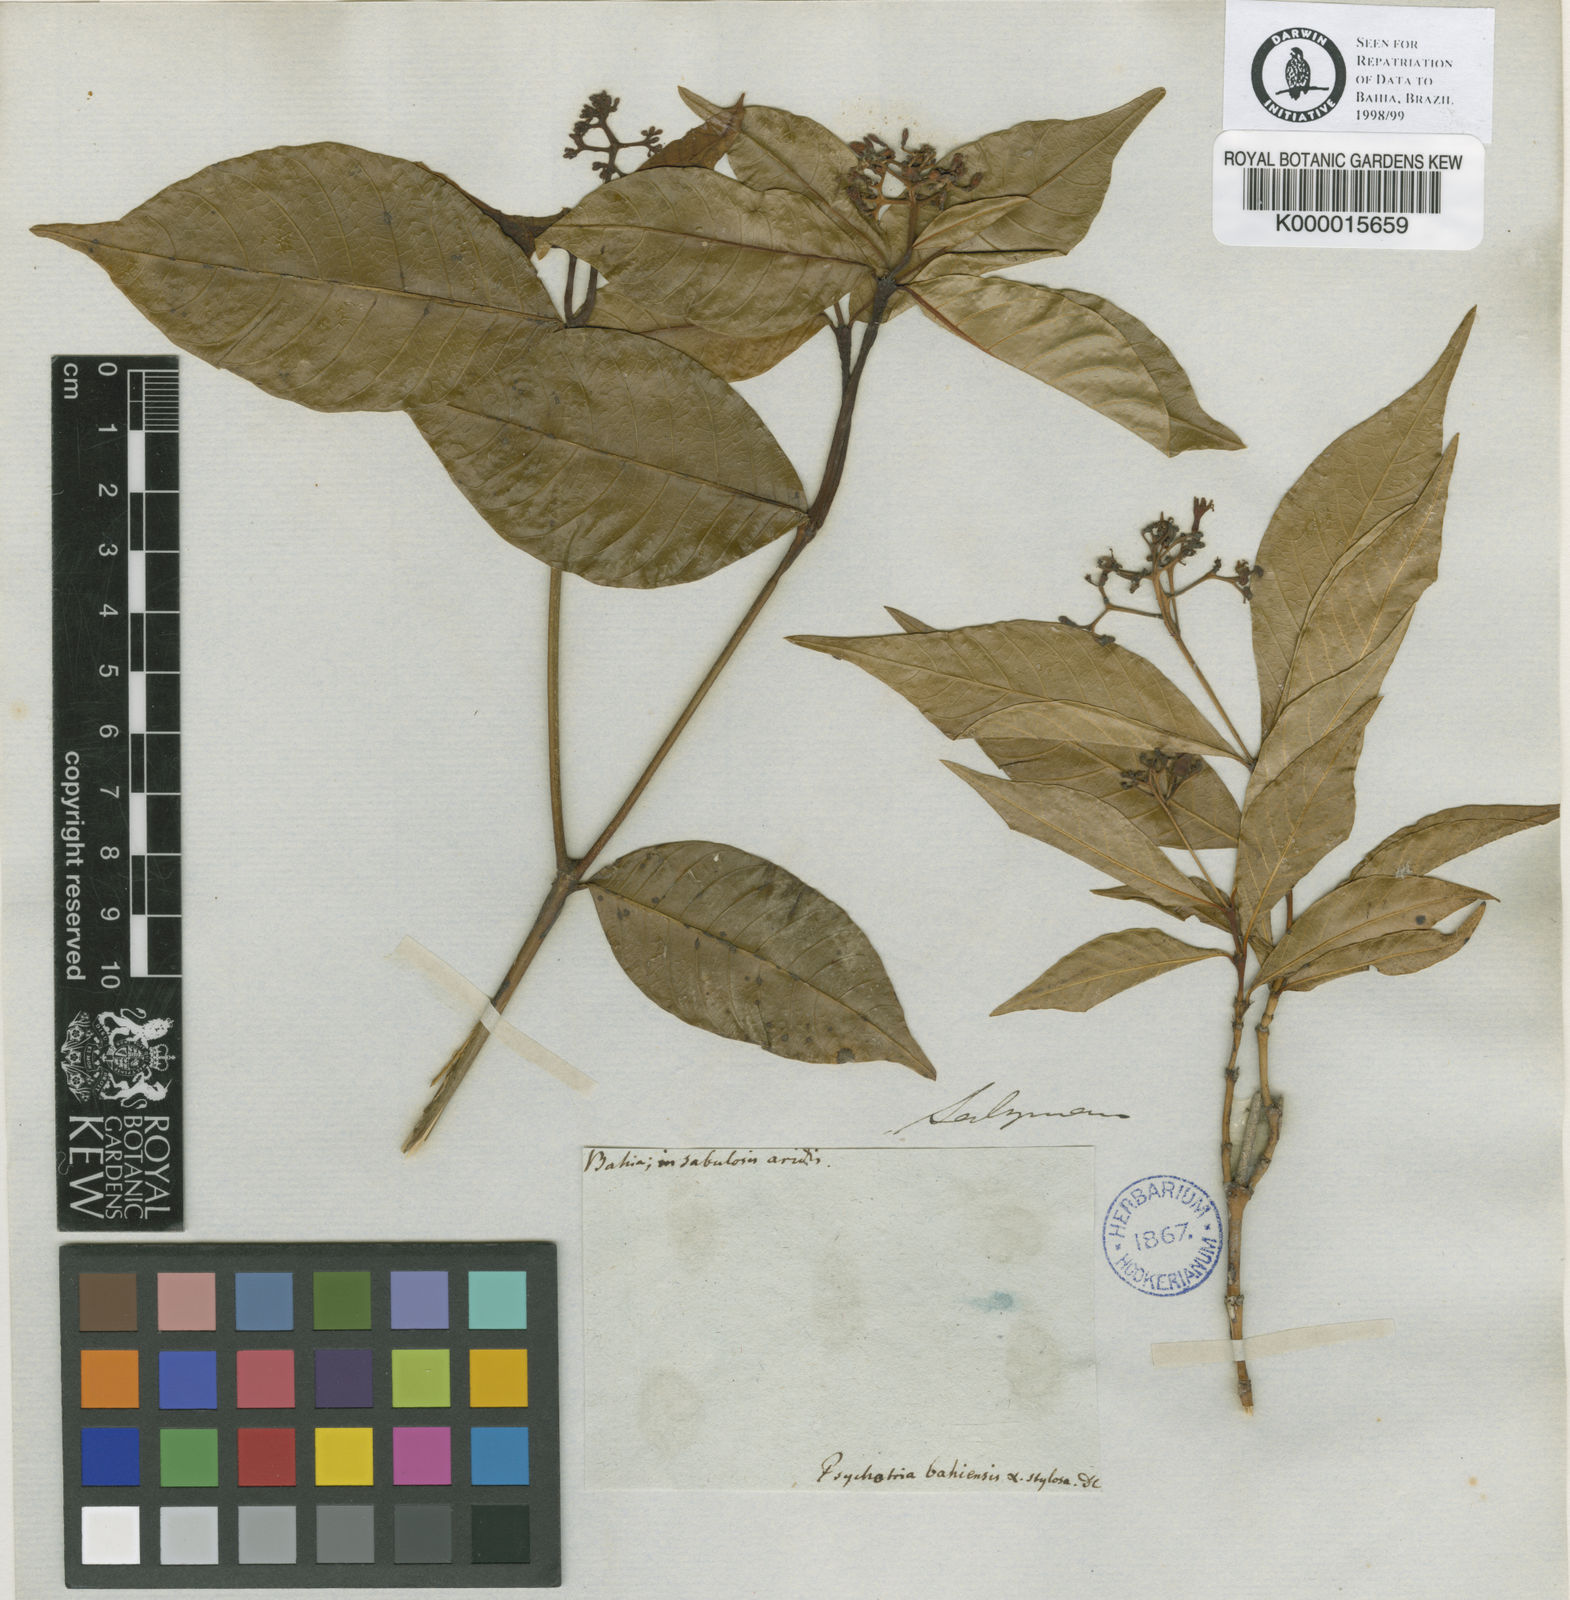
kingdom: Plantae
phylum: Tracheophyta
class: Magnoliopsida
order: Gentianales
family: Rubiaceae
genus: Palicourea
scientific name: Palicourea cuspidata
